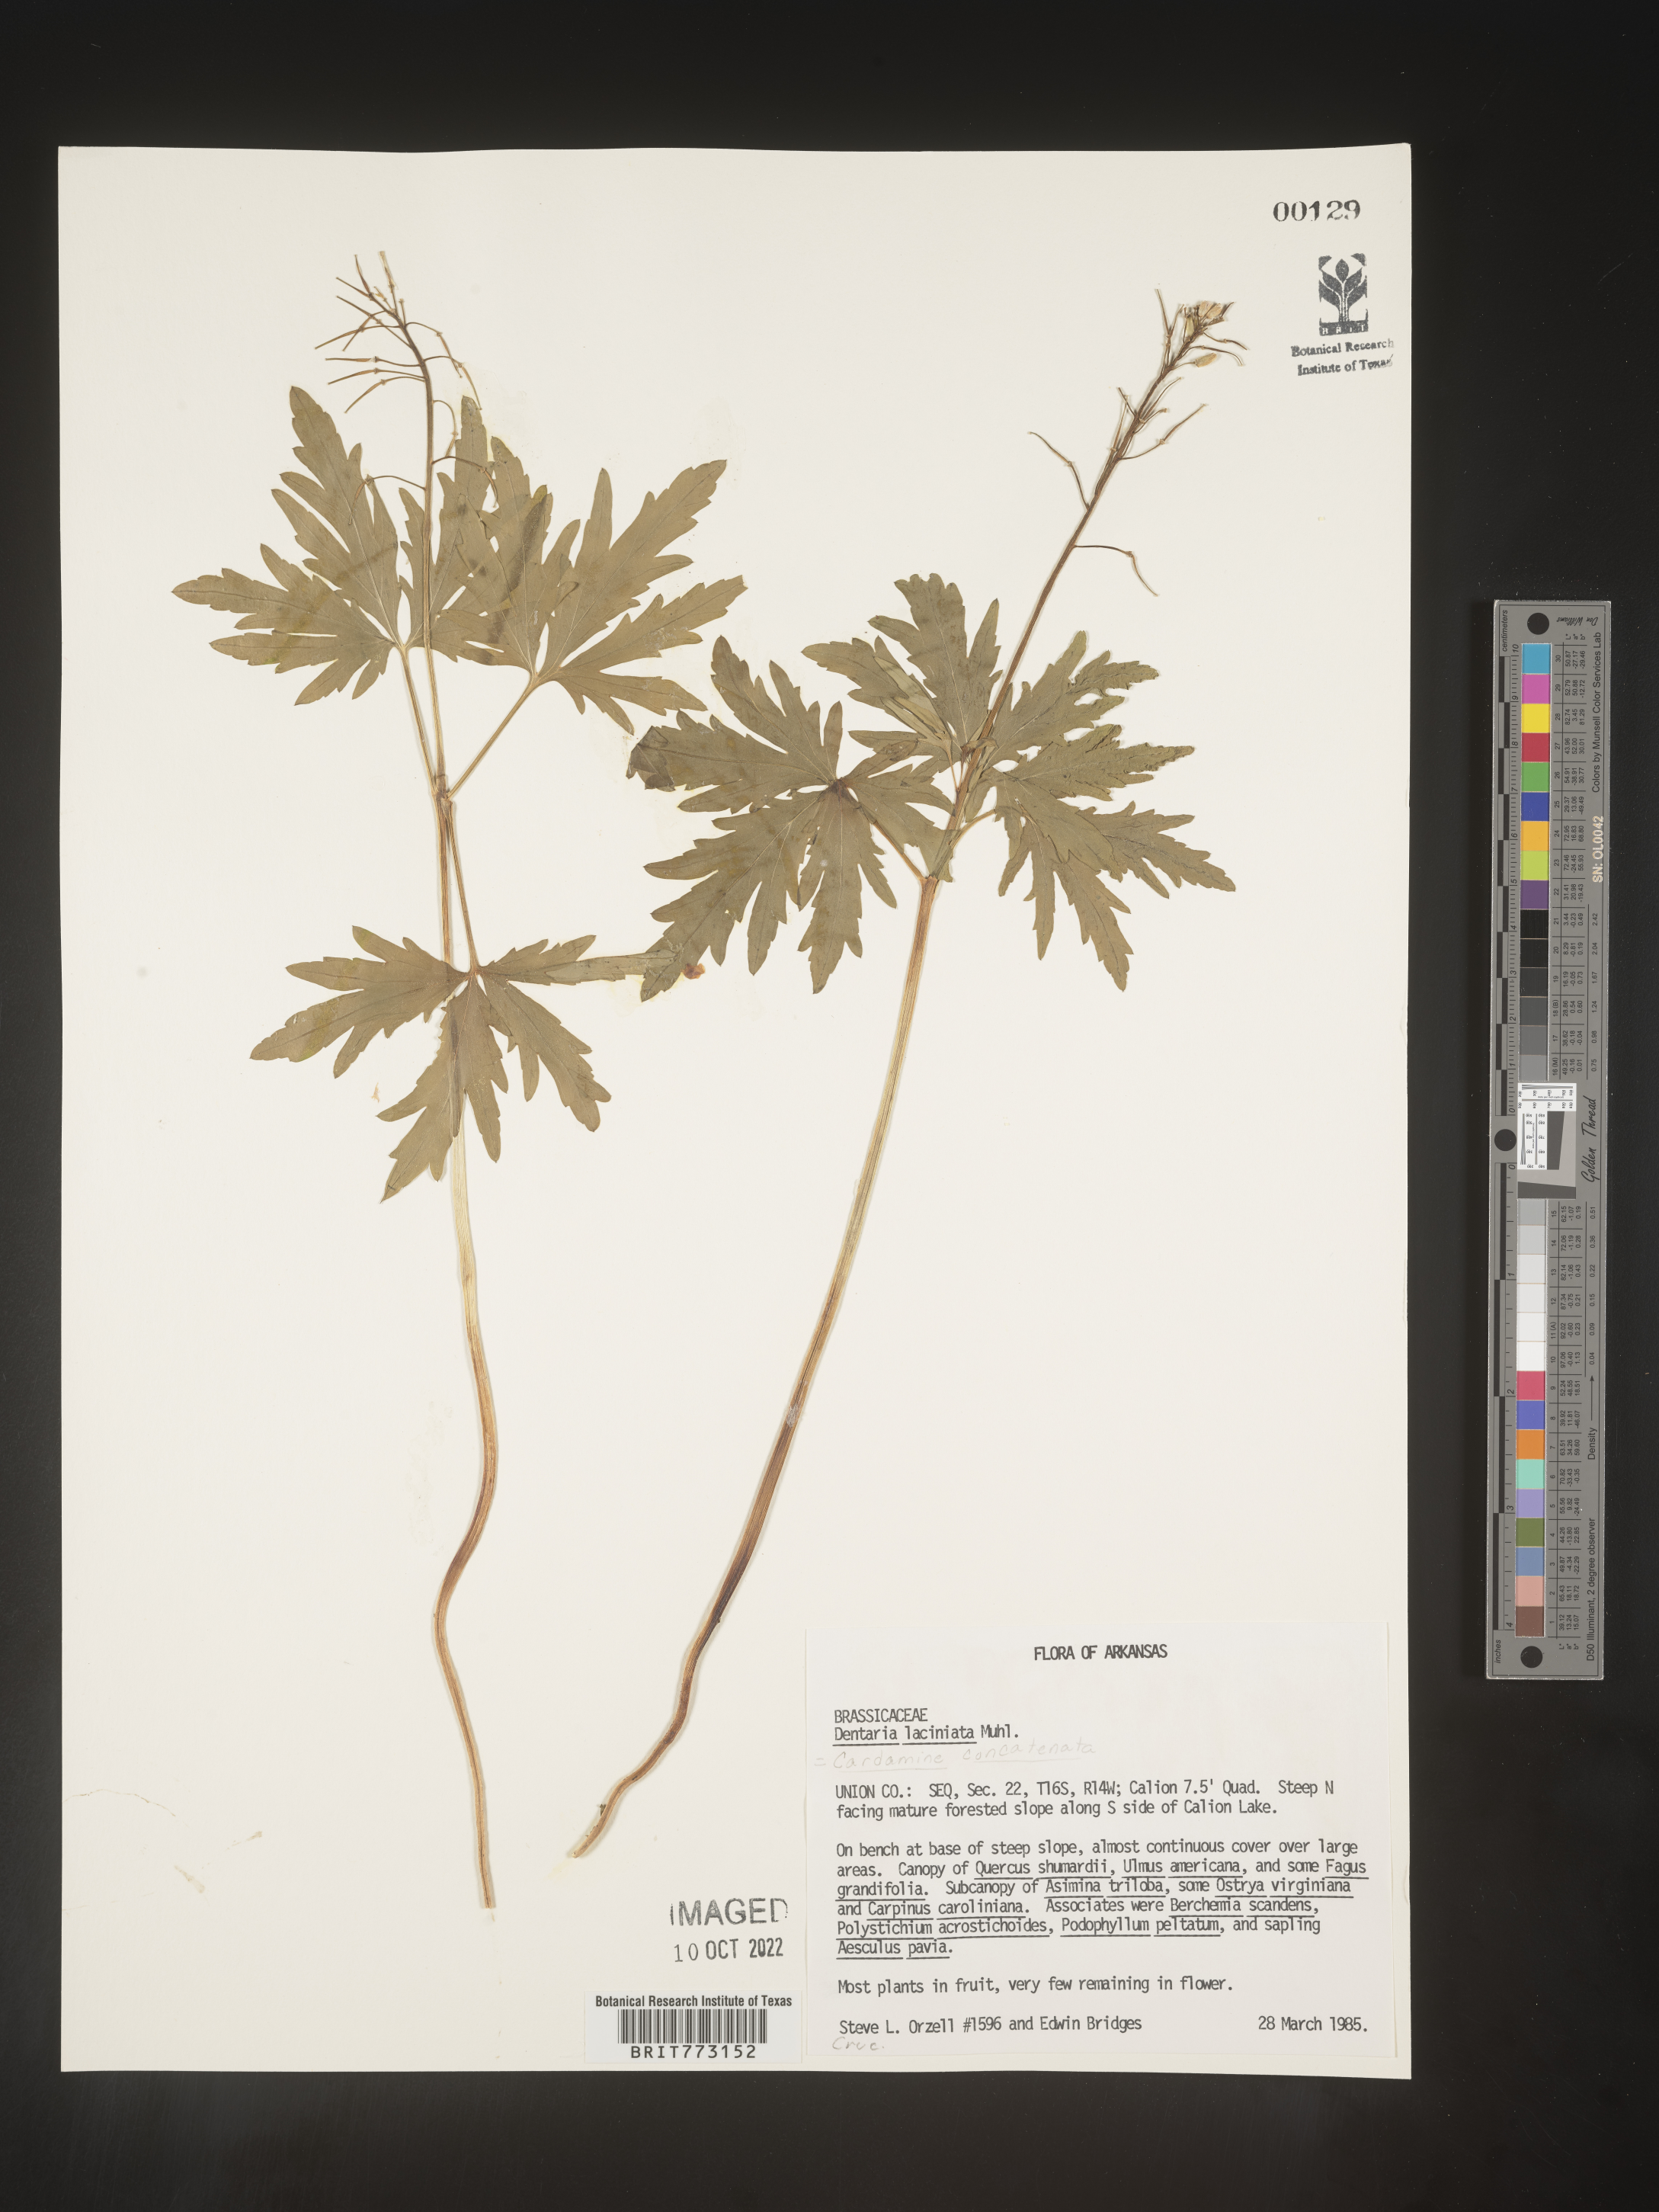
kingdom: Plantae
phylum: Tracheophyta
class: Magnoliopsida
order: Brassicales
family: Brassicaceae
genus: Cardamine
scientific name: Cardamine
